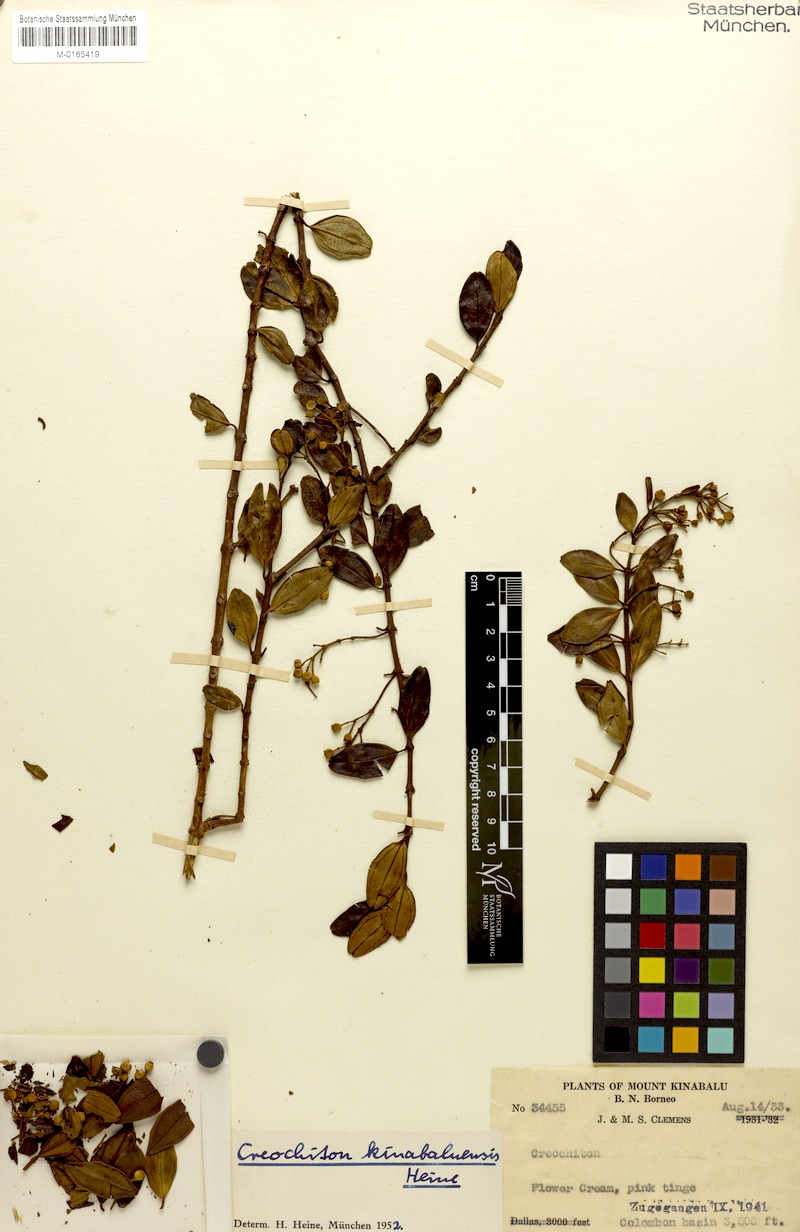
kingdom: Plantae
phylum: Tracheophyta
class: Magnoliopsida
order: Myrtales
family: Melastomataceae
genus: Creochiton
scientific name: Creochiton kinabaluense
